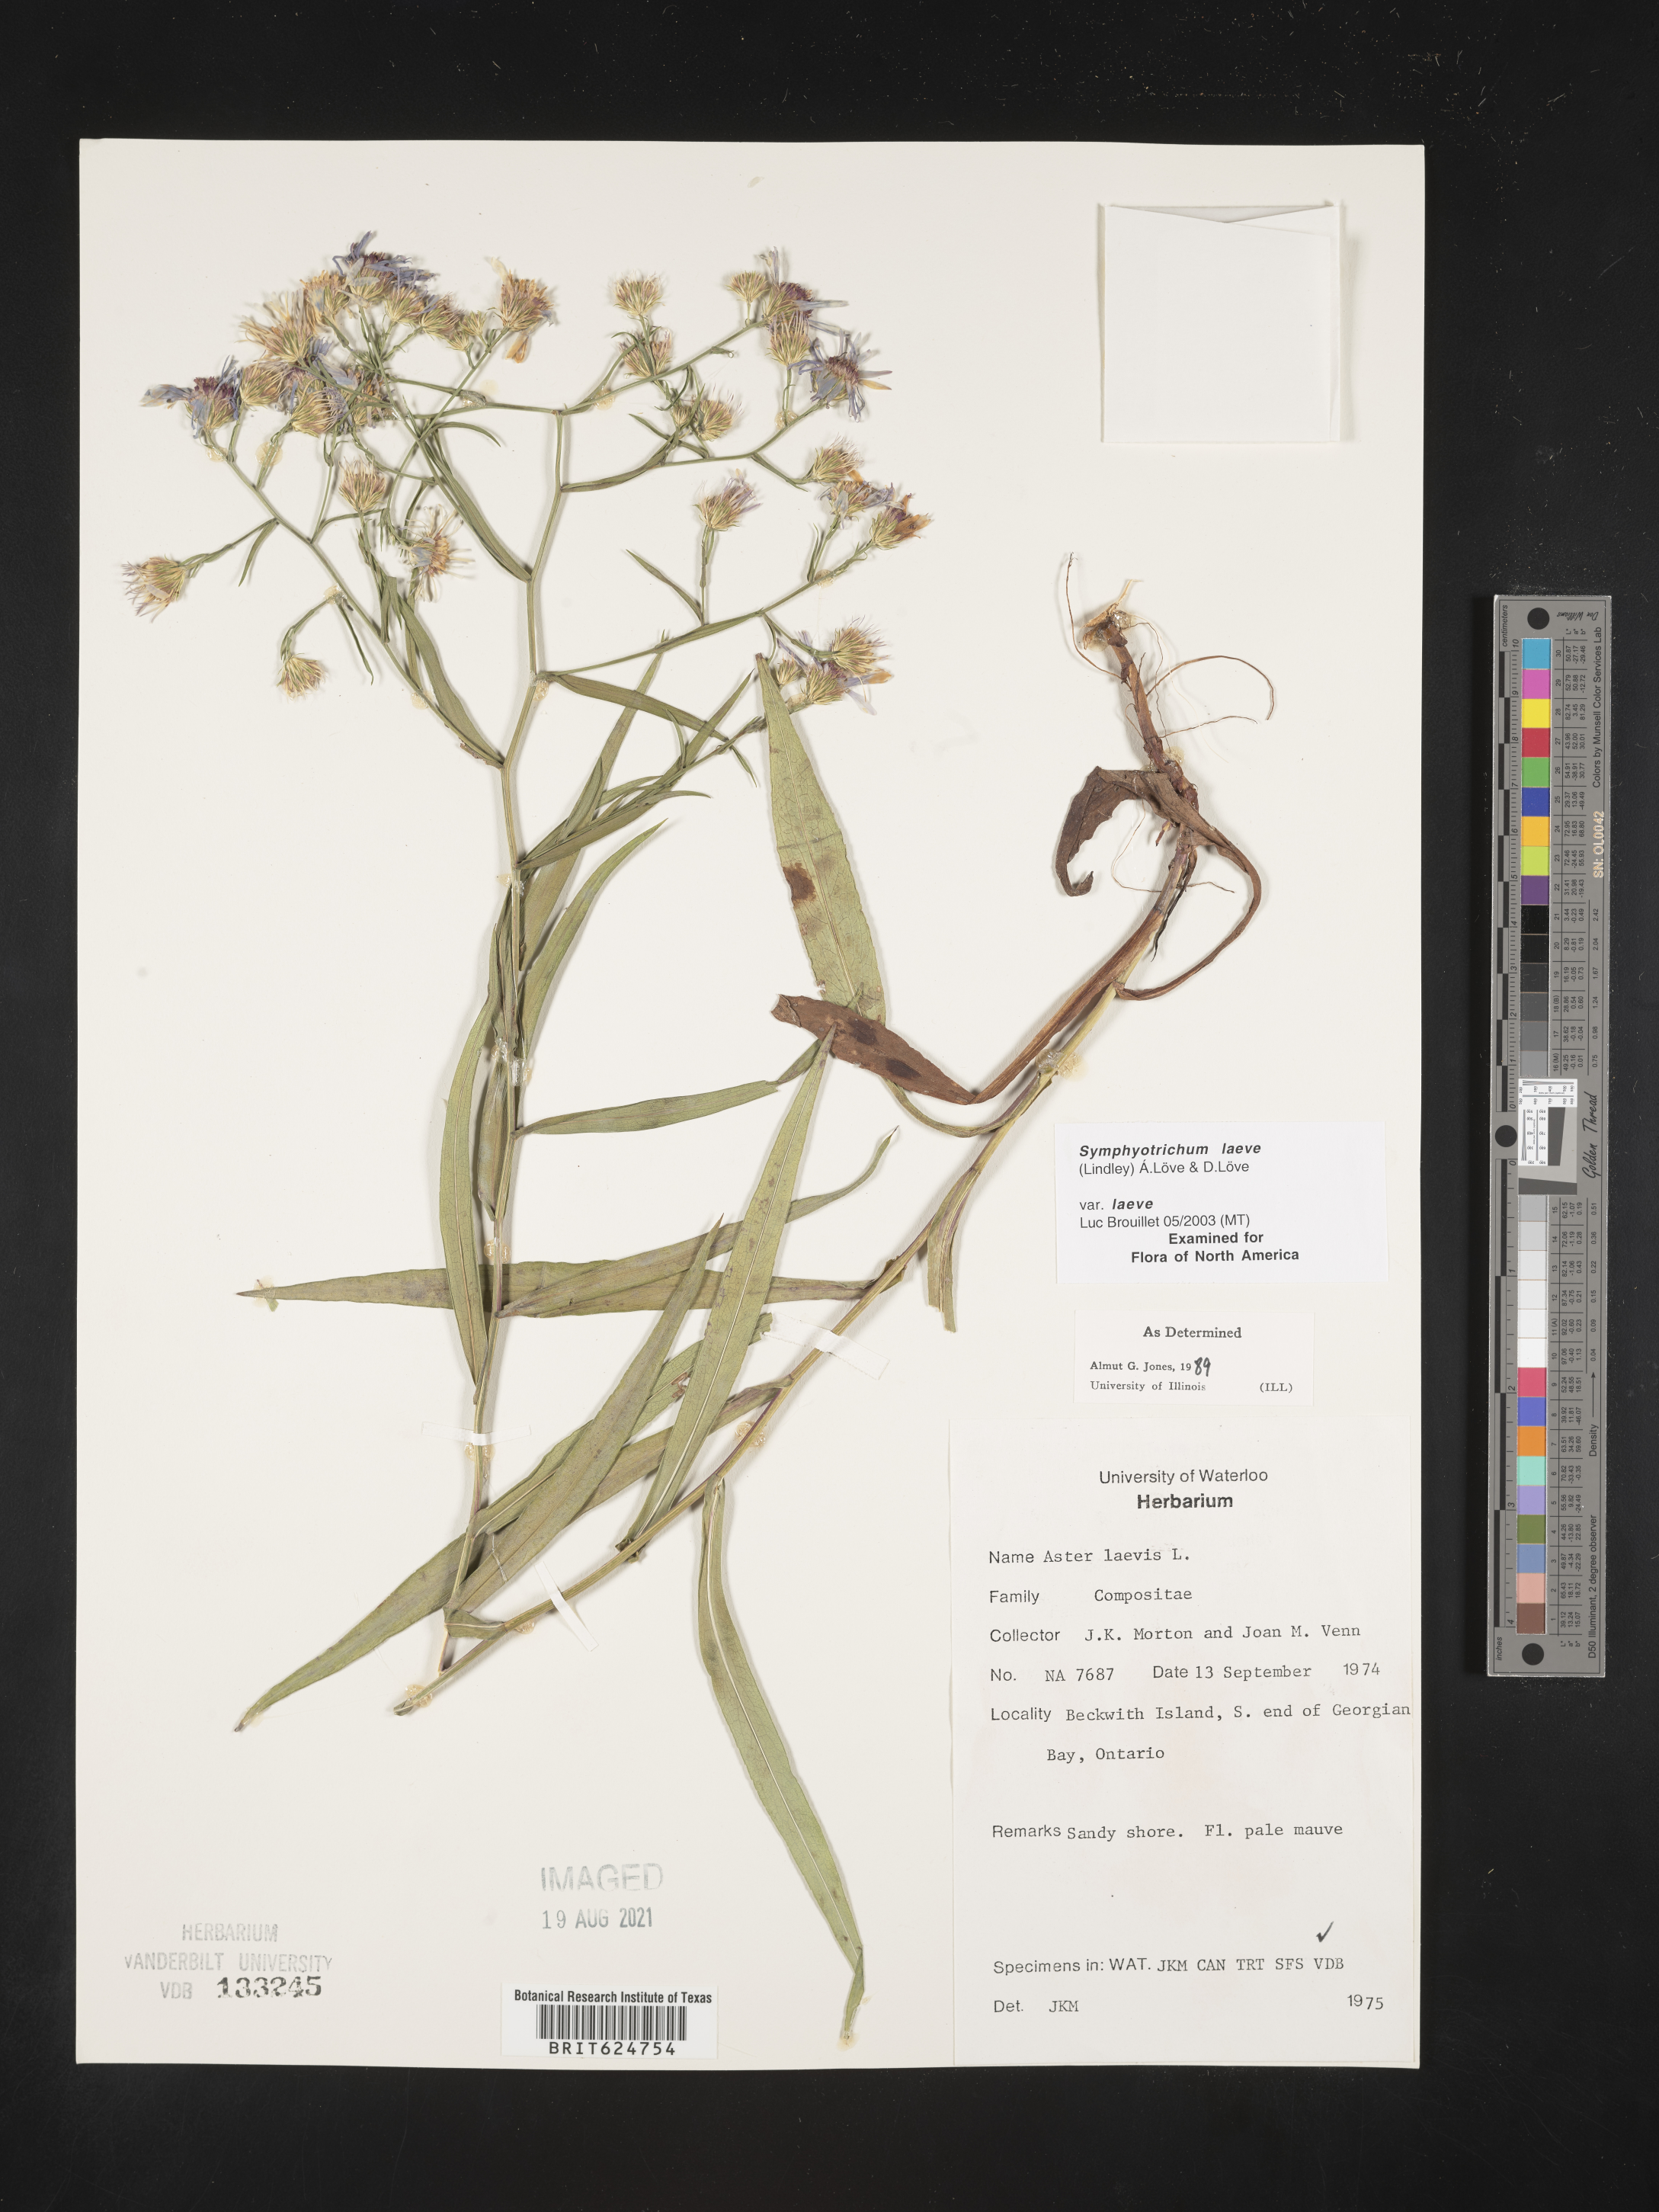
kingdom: Plantae
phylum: Tracheophyta
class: Magnoliopsida
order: Asterales
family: Asteraceae
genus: Symphyotrichum
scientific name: Symphyotrichum laeve
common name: Glaucous aster
